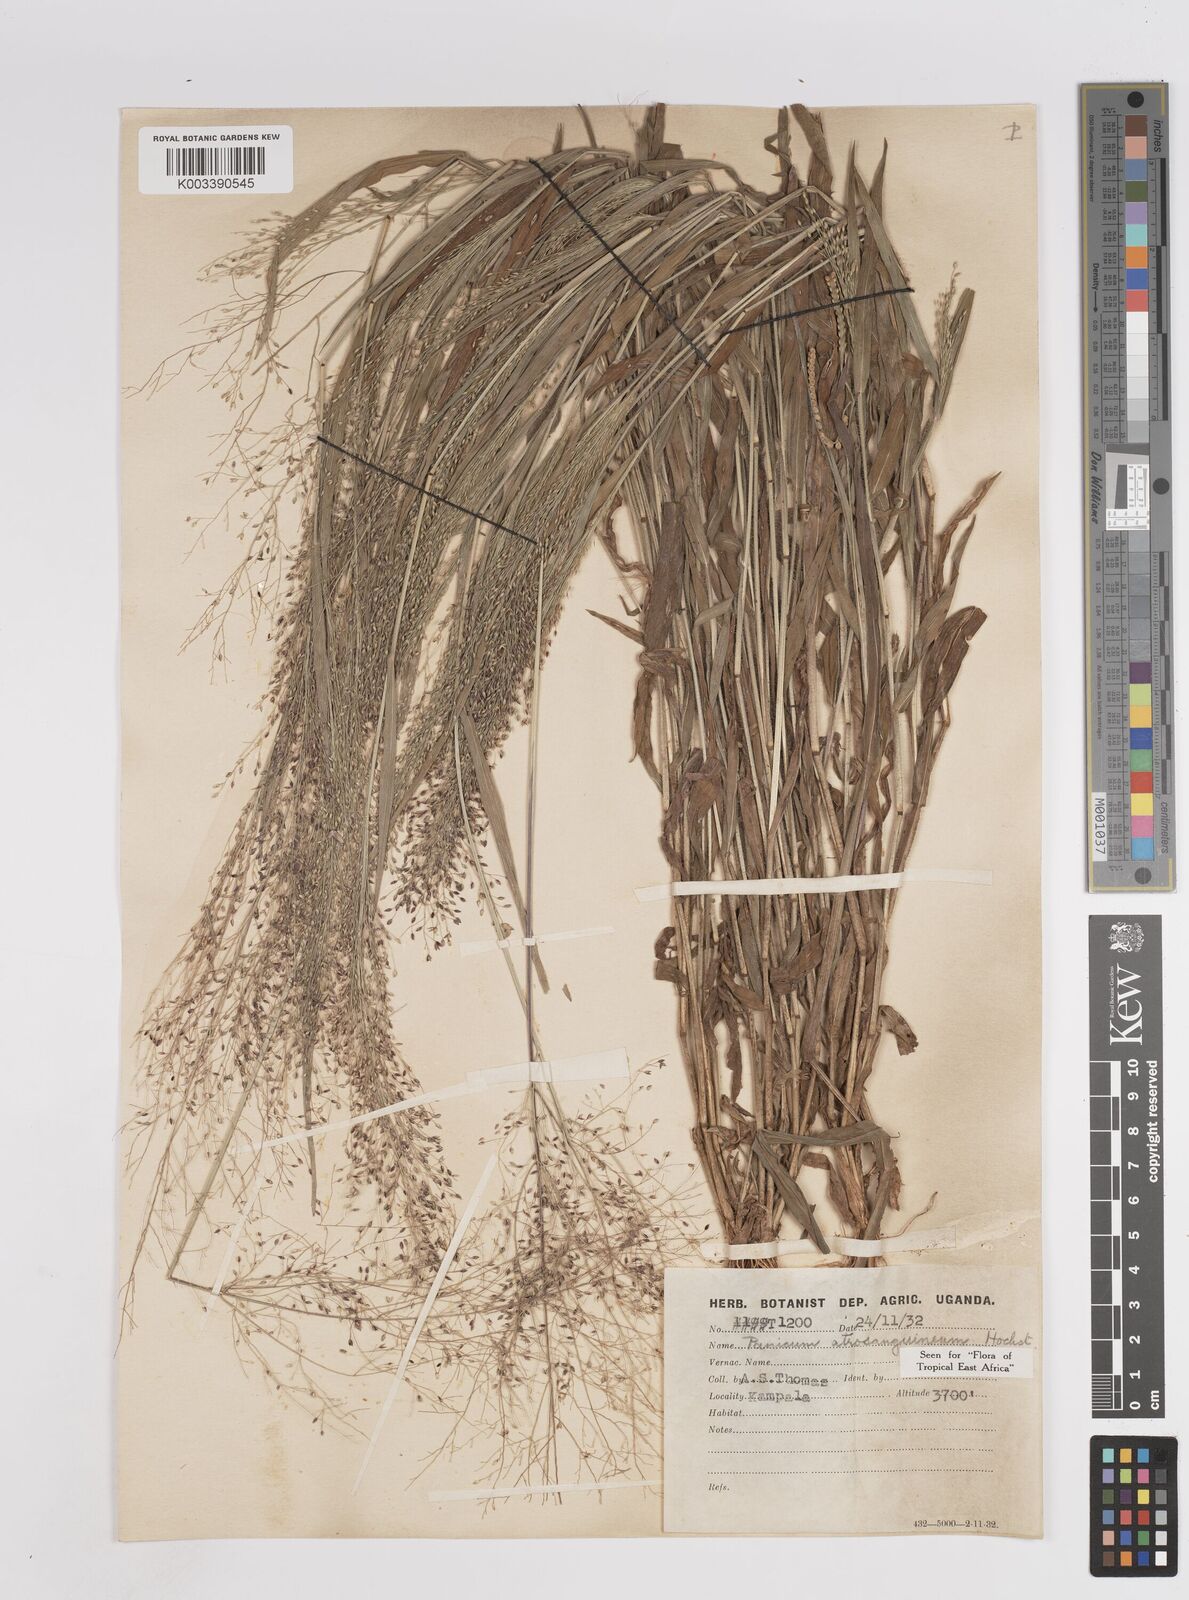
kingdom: Plantae
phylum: Tracheophyta
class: Liliopsida
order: Poales
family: Poaceae
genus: Panicum
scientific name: Panicum atrosanguineum
